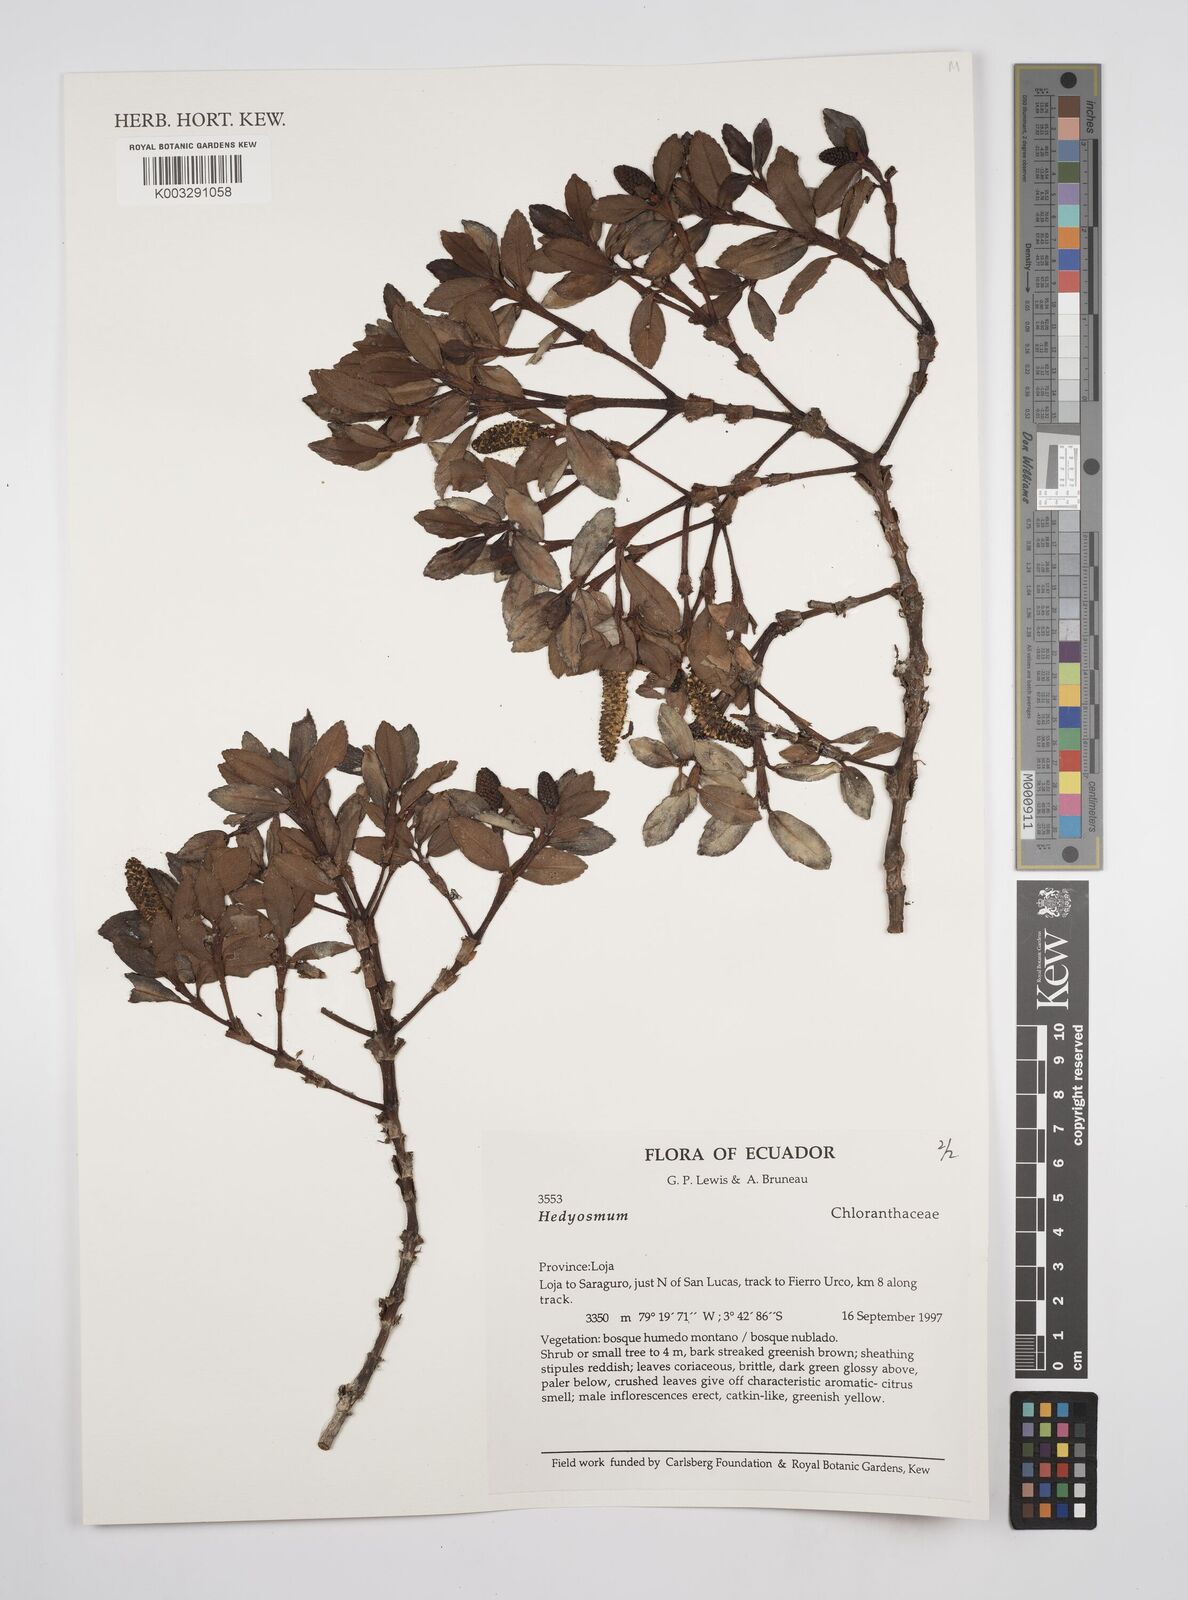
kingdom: Plantae
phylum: Tracheophyta
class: Magnoliopsida
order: Chloranthales
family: Chloranthaceae
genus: Hedyosmum
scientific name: Hedyosmum
